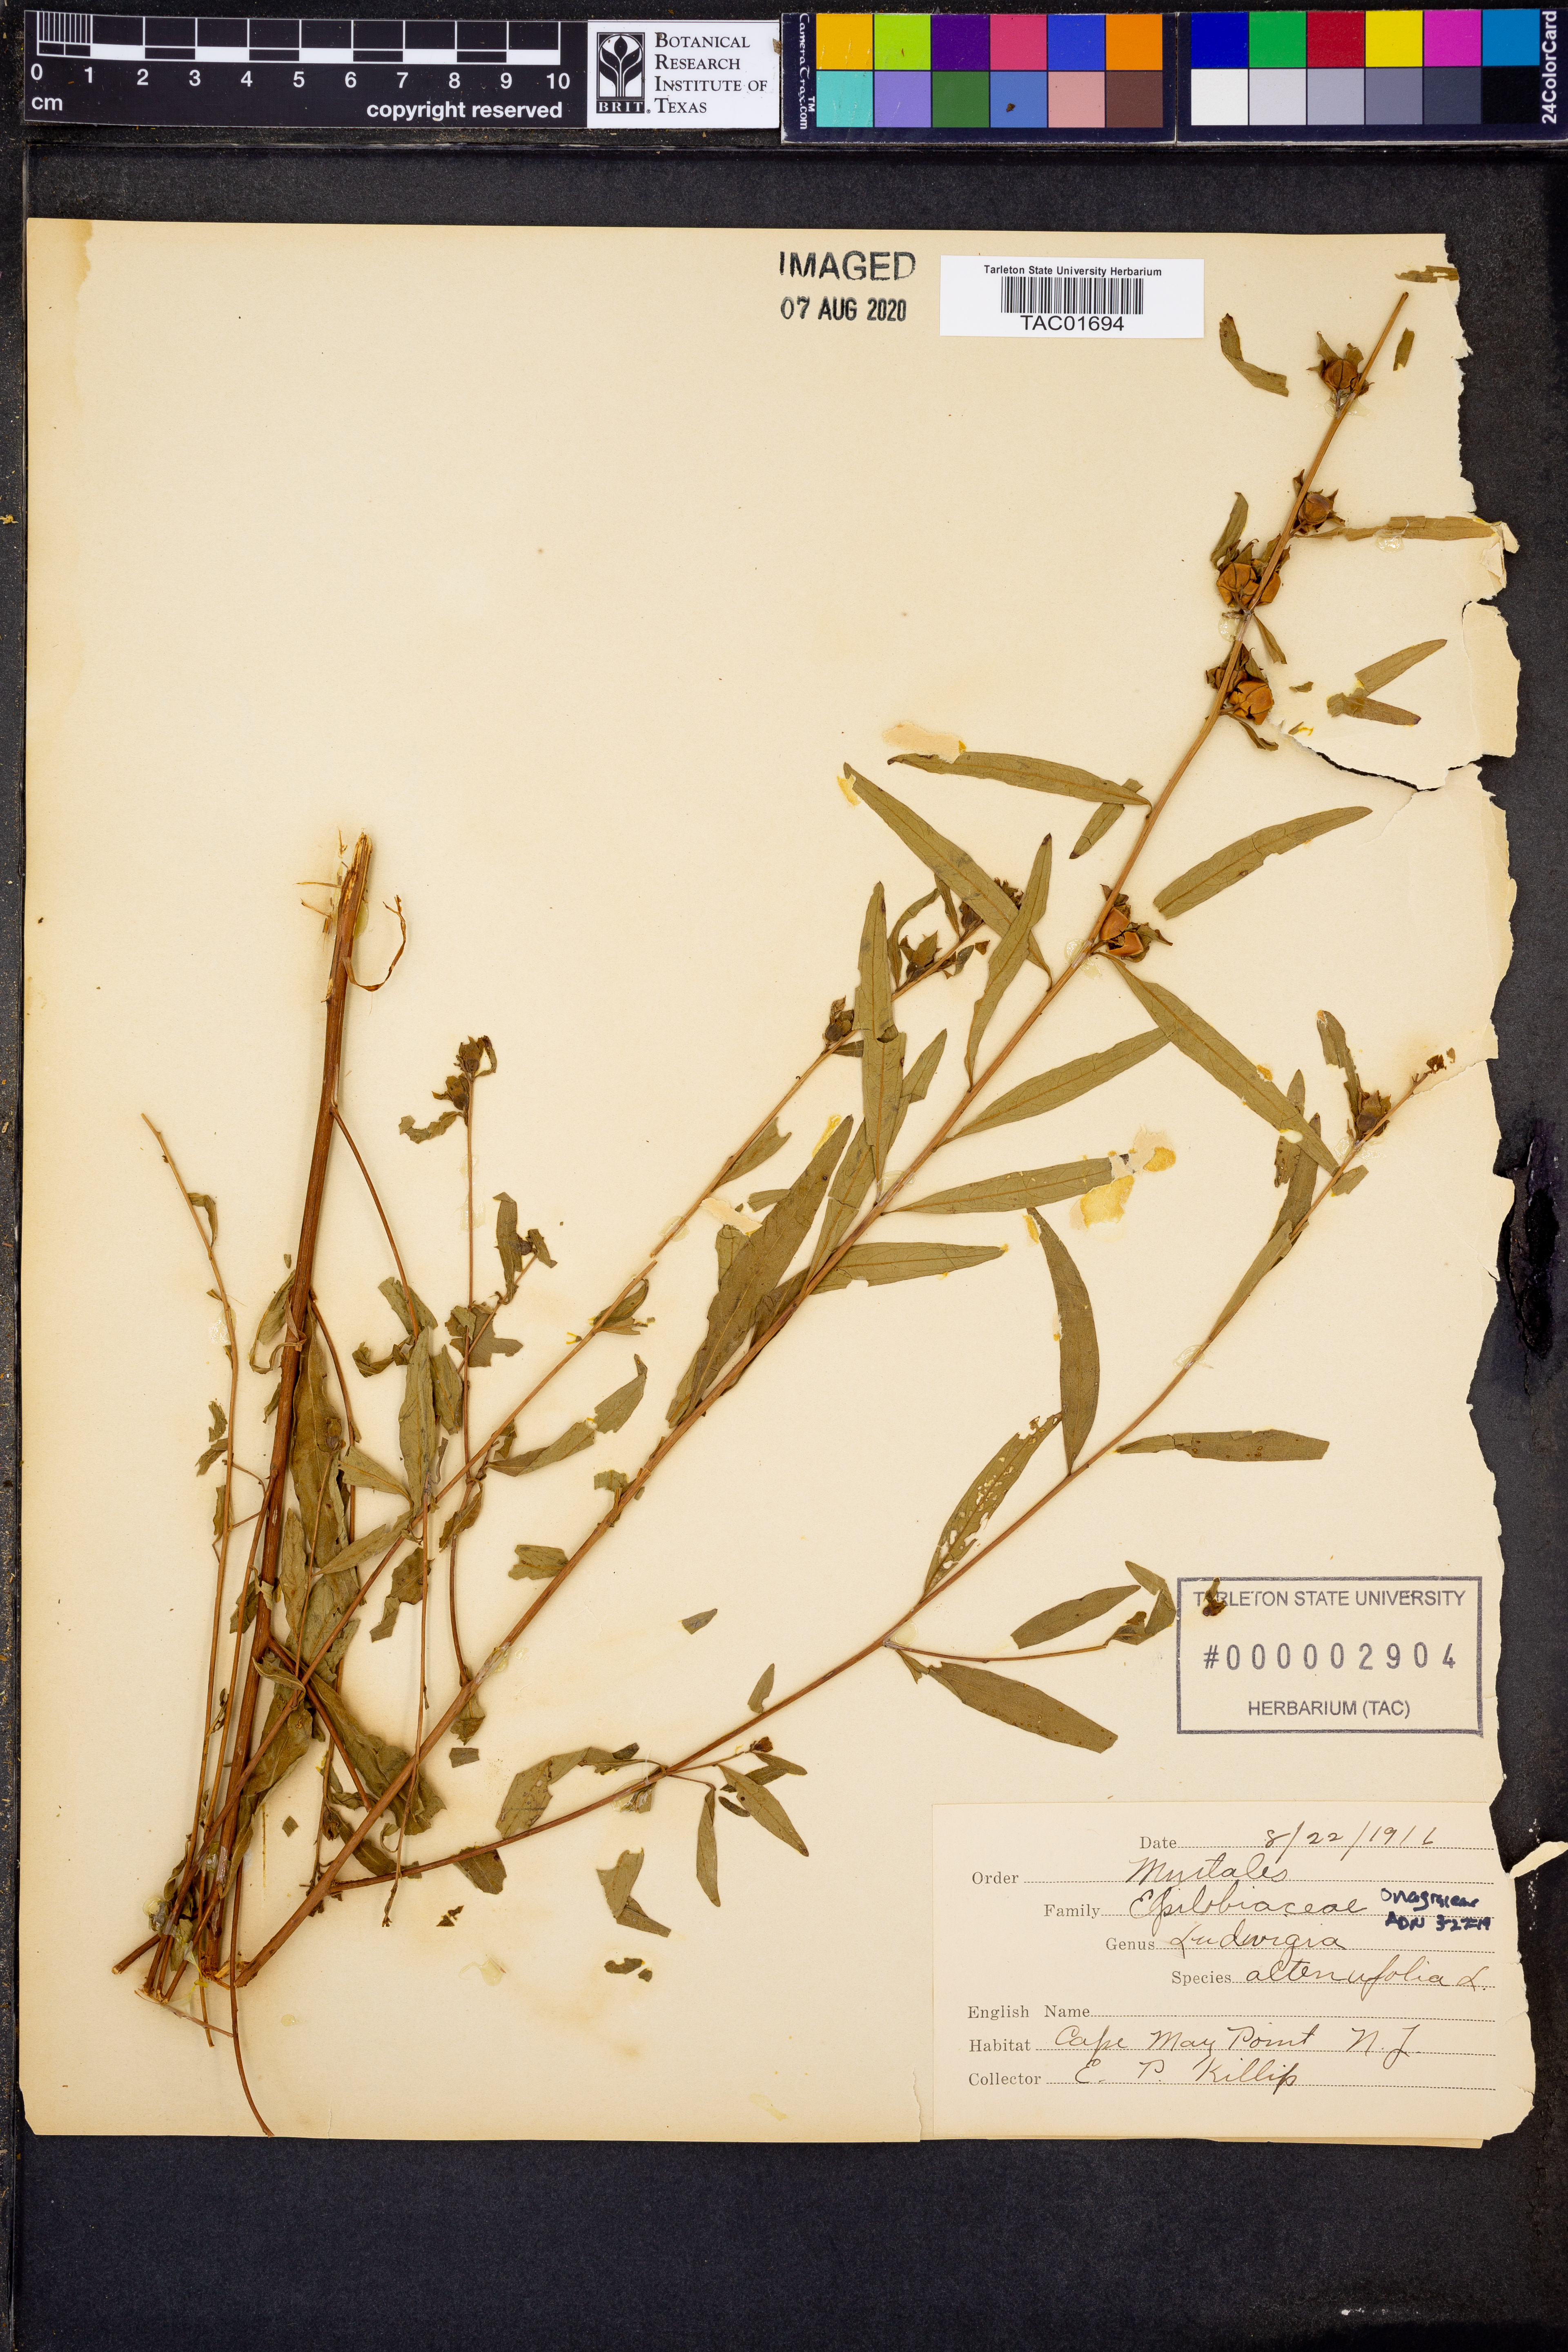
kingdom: Plantae
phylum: Tracheophyta
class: Magnoliopsida
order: Myrtales
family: Onagraceae
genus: Ludwigia
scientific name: Ludwigia alternifolia
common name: Rattlebox
